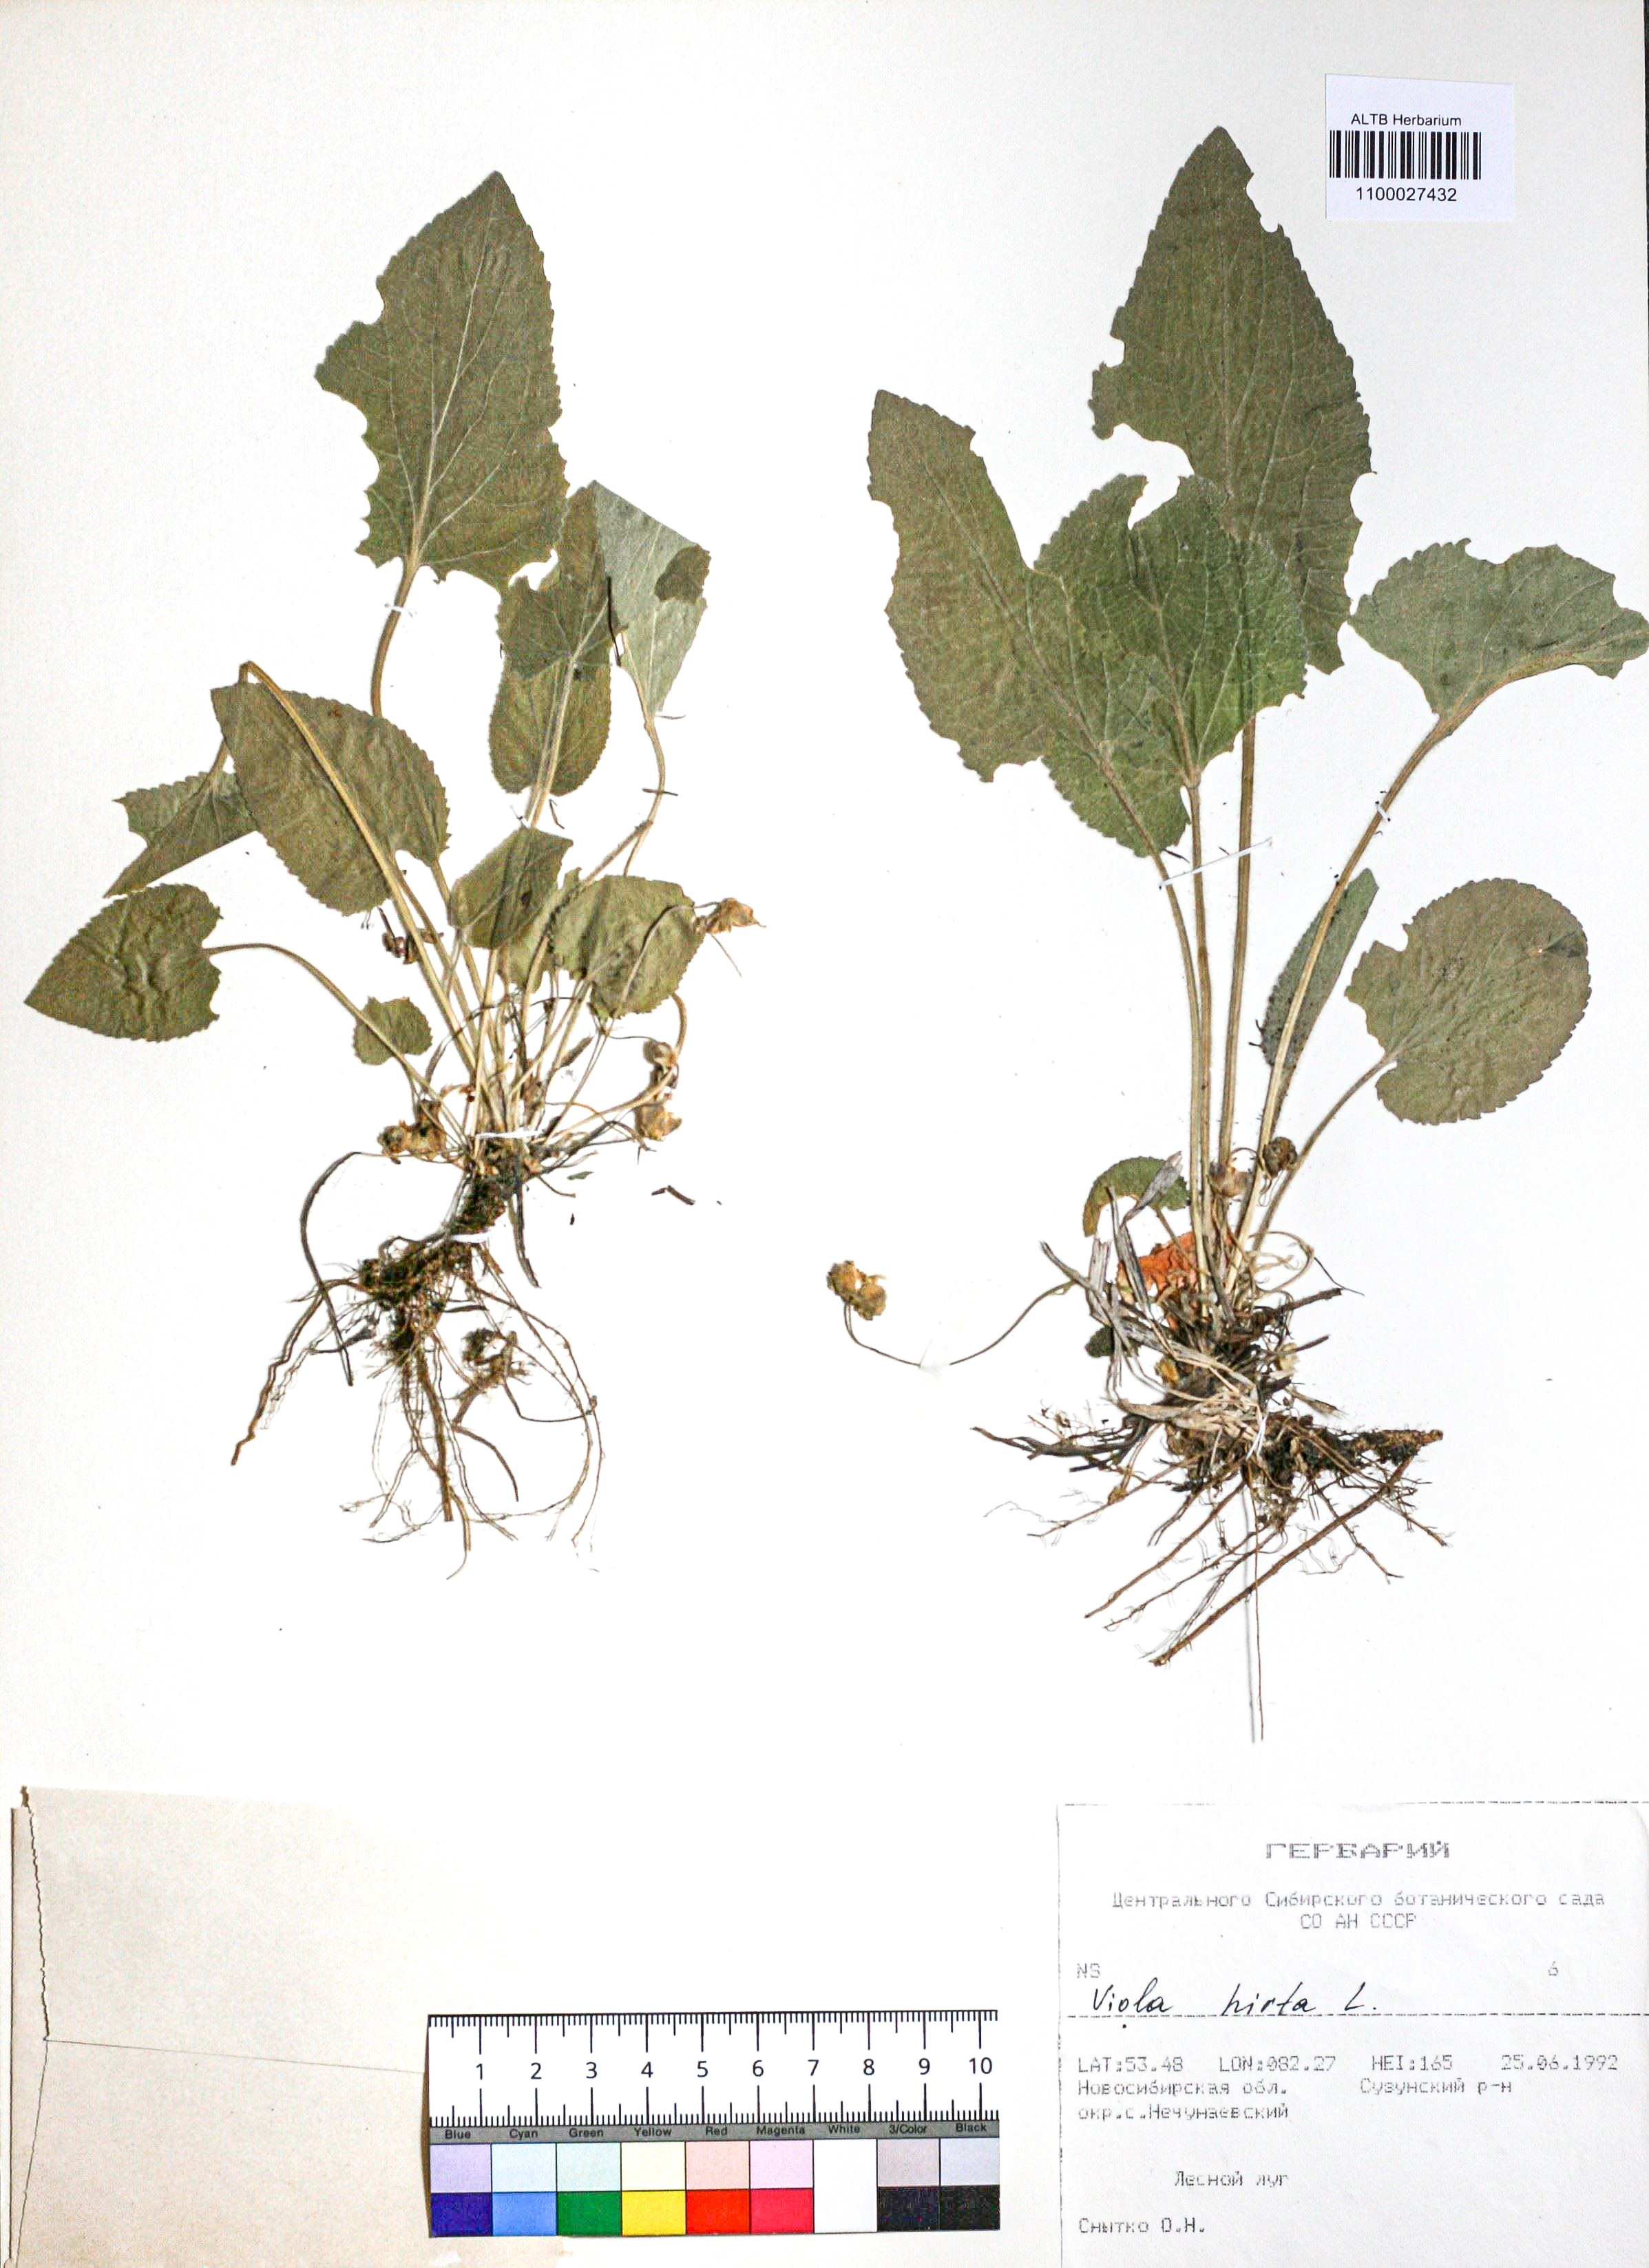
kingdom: Plantae
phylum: Tracheophyta
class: Magnoliopsida
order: Malpighiales
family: Violaceae
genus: Viola
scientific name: Viola hirta
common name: Hairy violet
